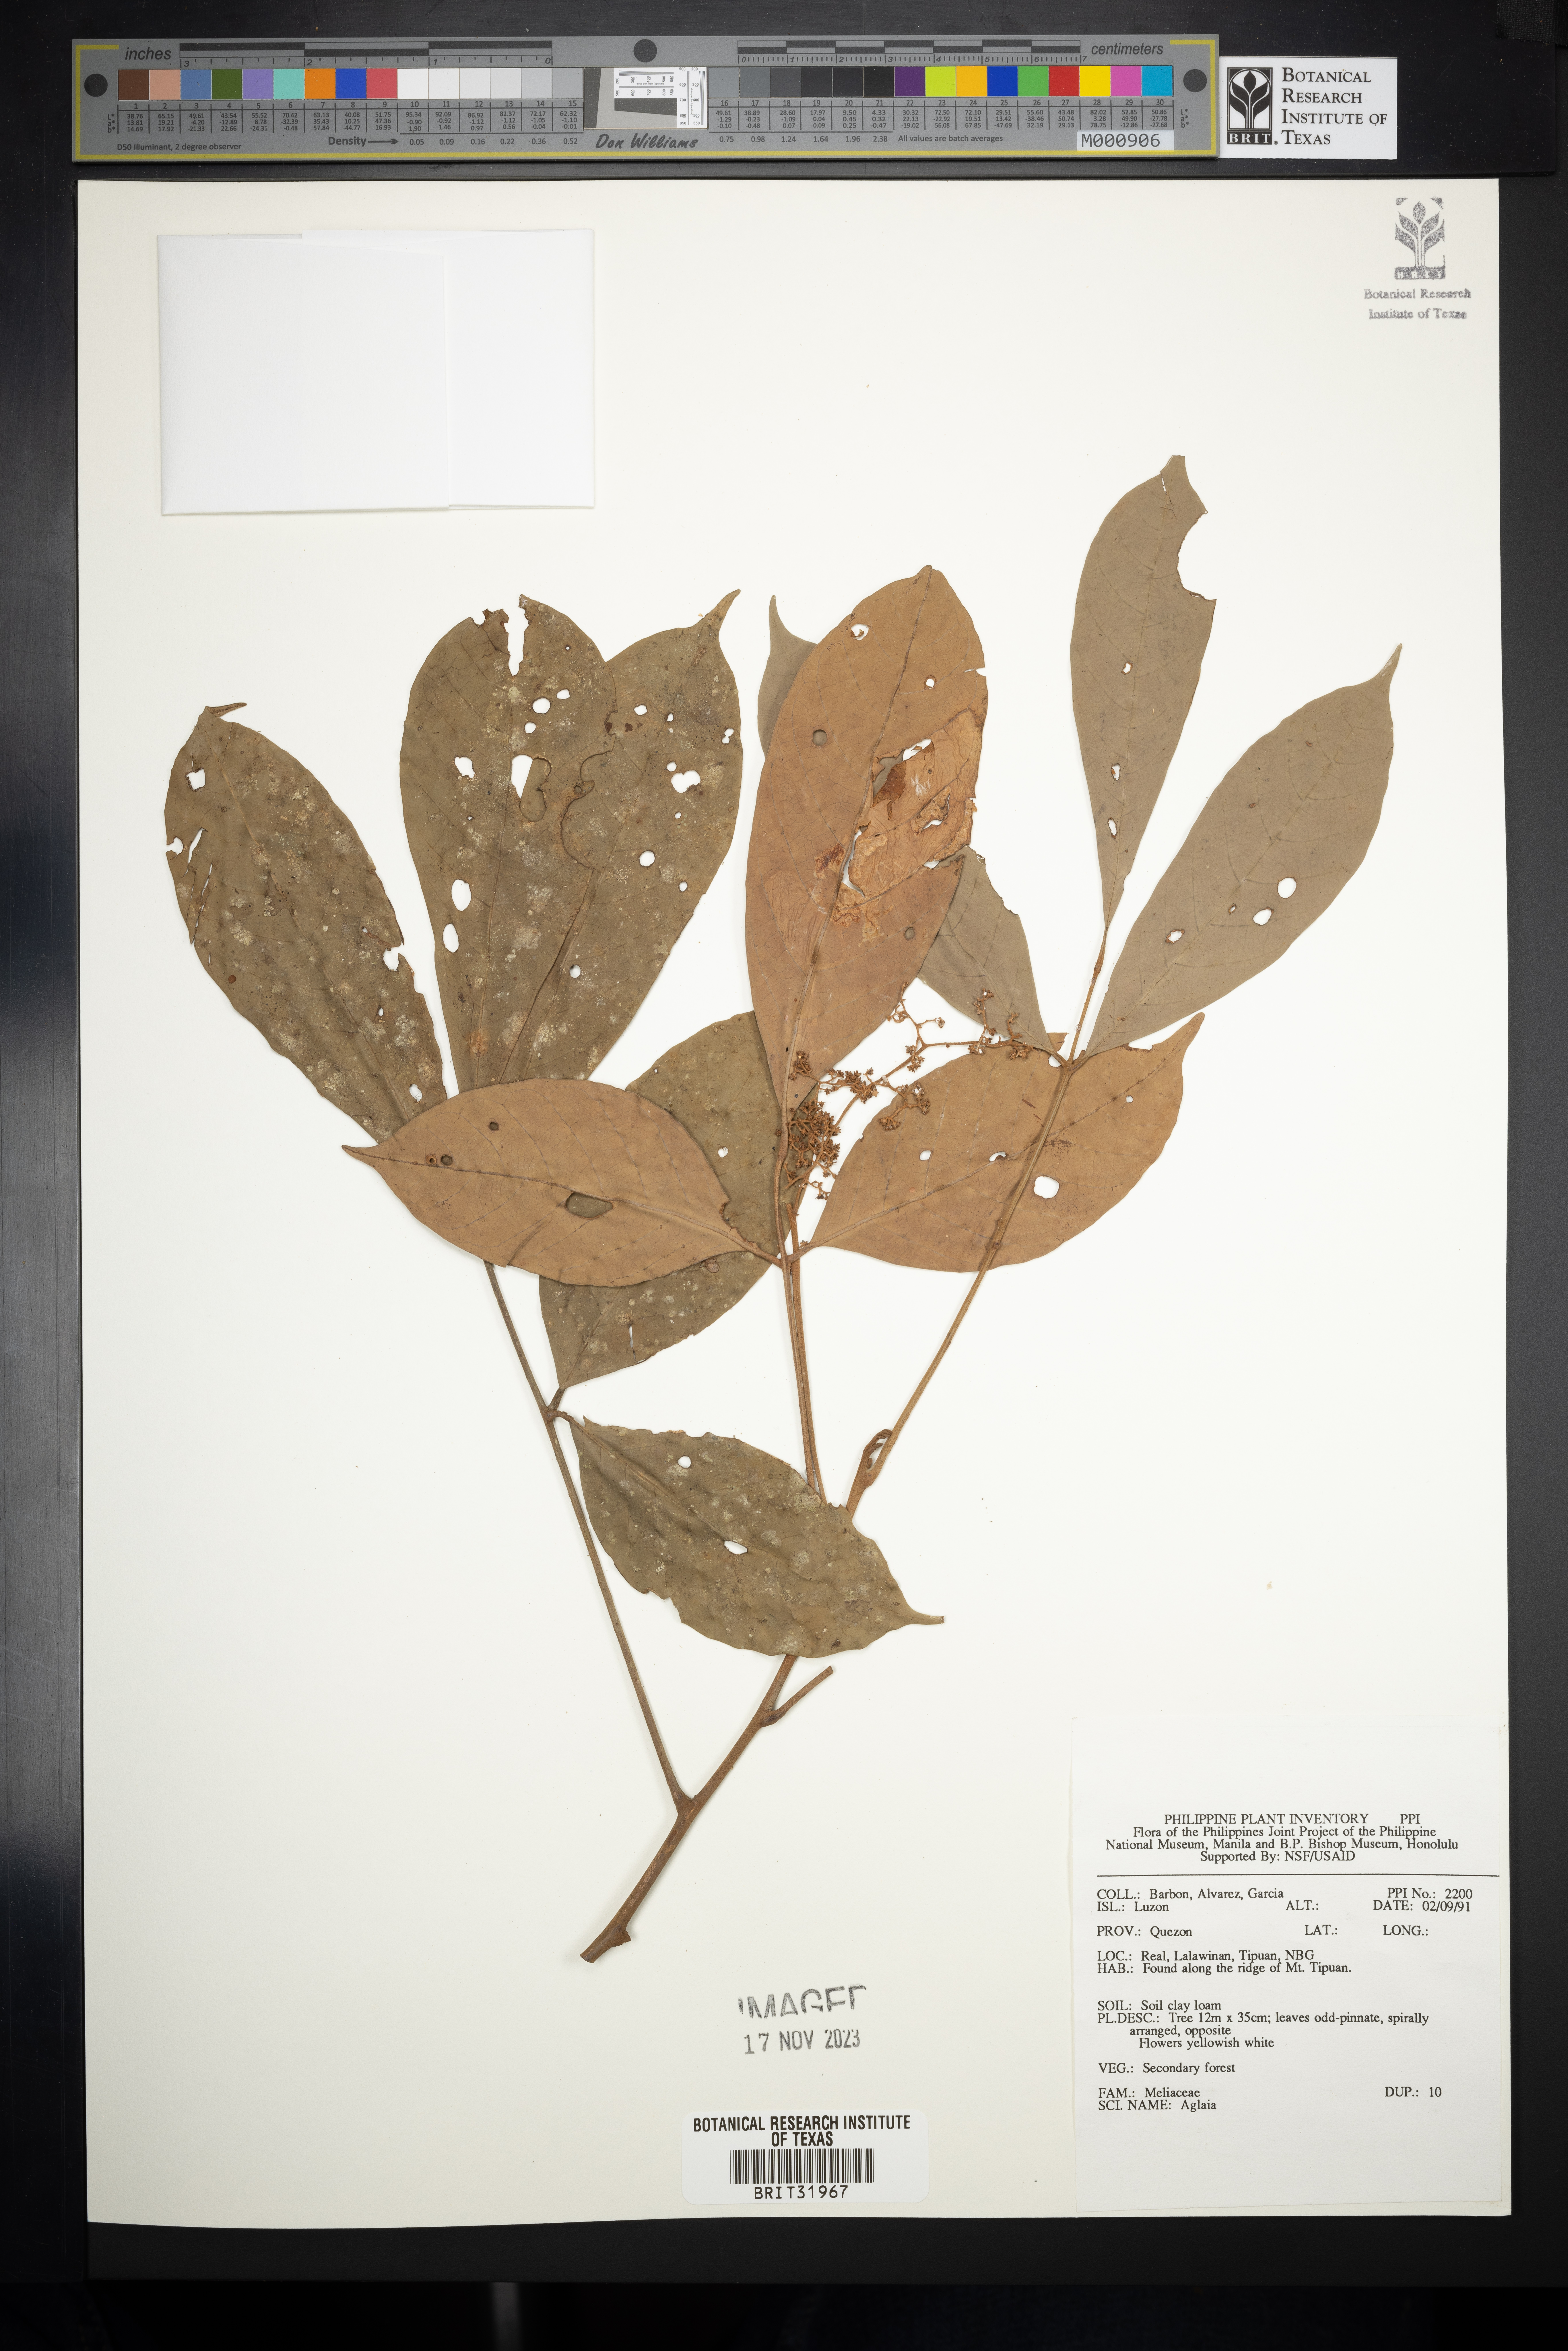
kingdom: Plantae
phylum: Tracheophyta
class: Magnoliopsida
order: Sapindales
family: Meliaceae
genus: Aglaia
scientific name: Aglaia
